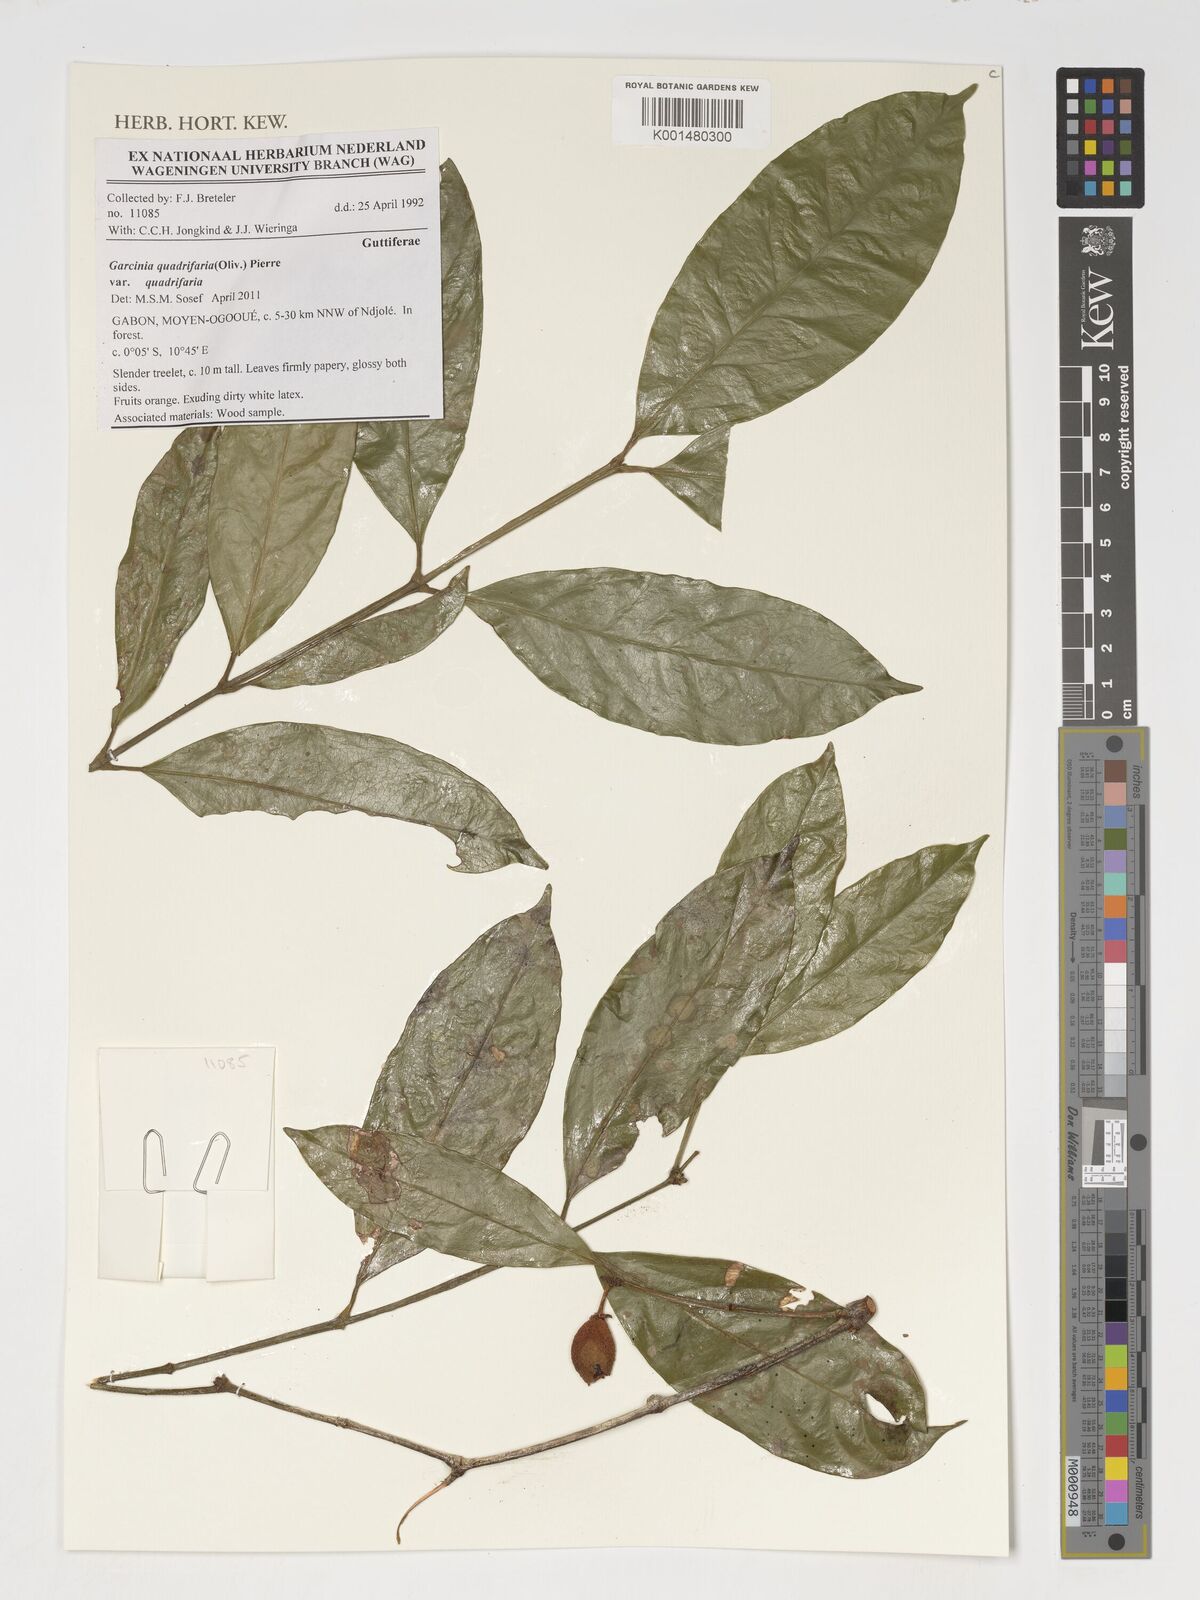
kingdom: Plantae
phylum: Tracheophyta
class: Magnoliopsida
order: Malpighiales
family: Clusiaceae
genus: Garcinia
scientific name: Garcinia quadrifaria
